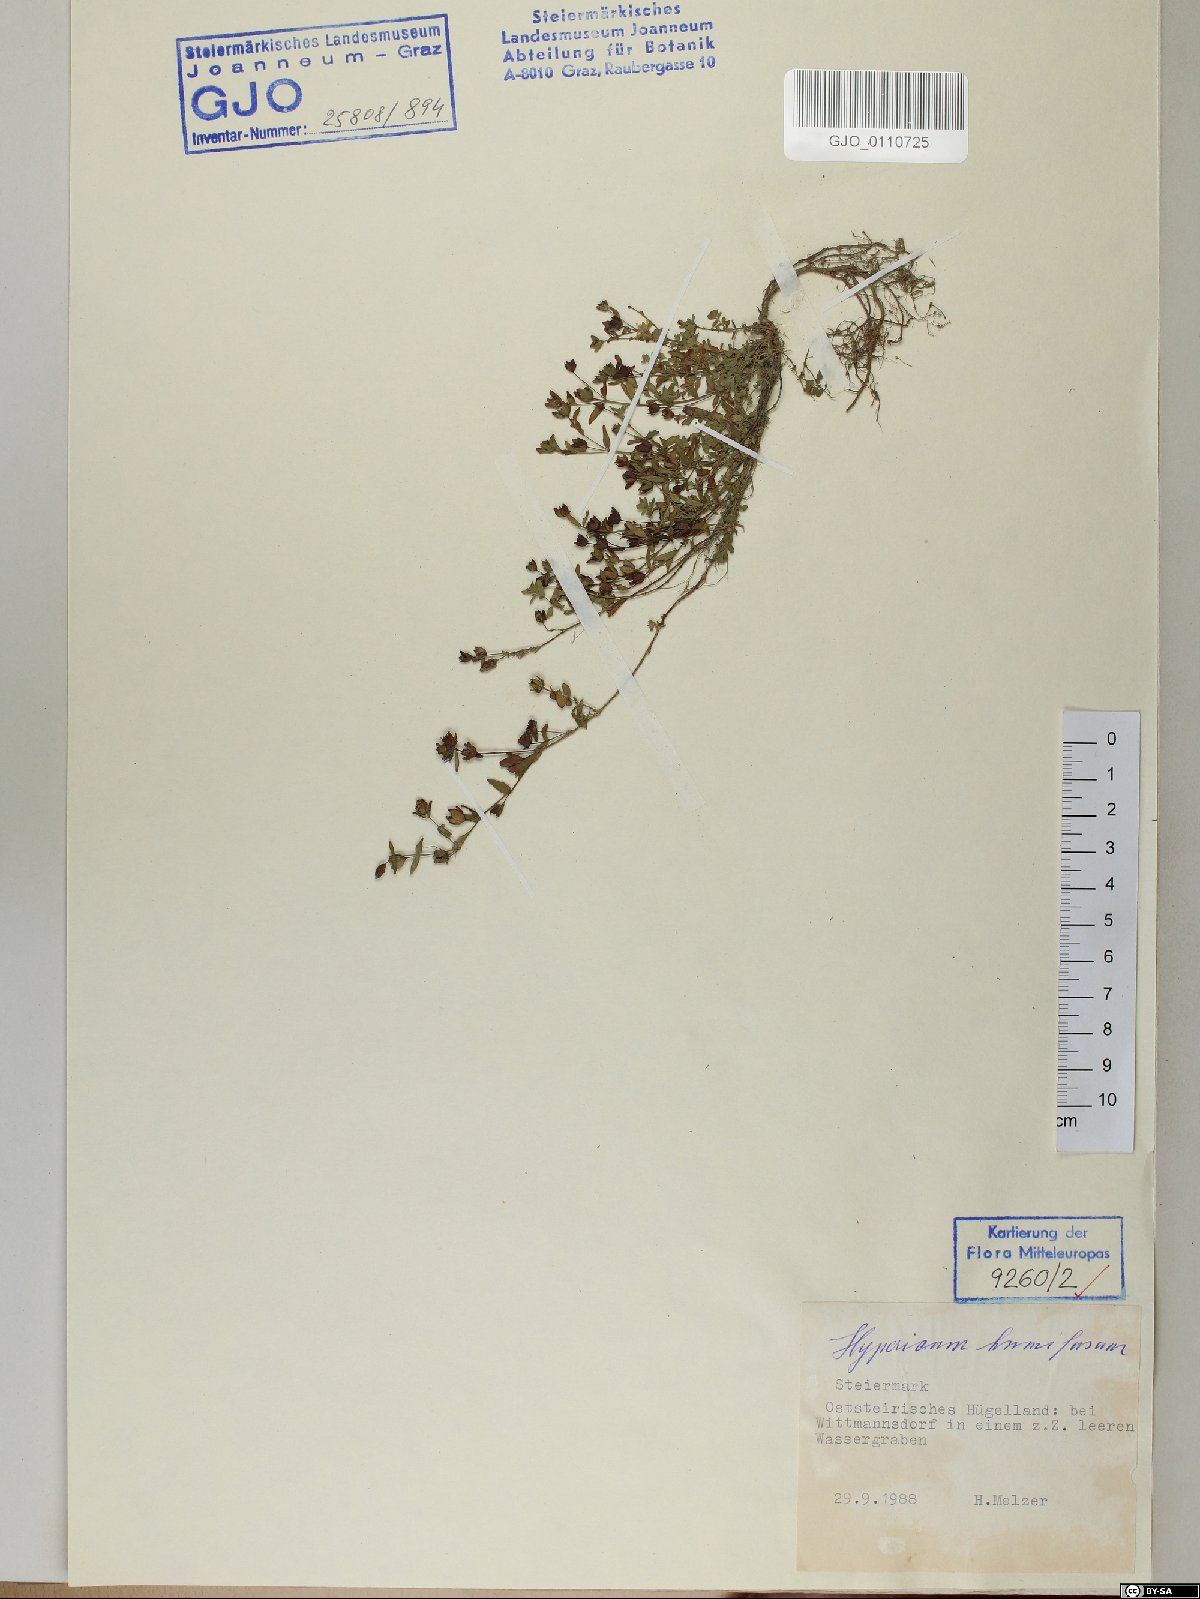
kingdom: Plantae
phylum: Tracheophyta
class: Magnoliopsida
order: Malpighiales
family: Hypericaceae
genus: Hypericum
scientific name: Hypericum humifusum
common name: Trailing st. john's-wort
